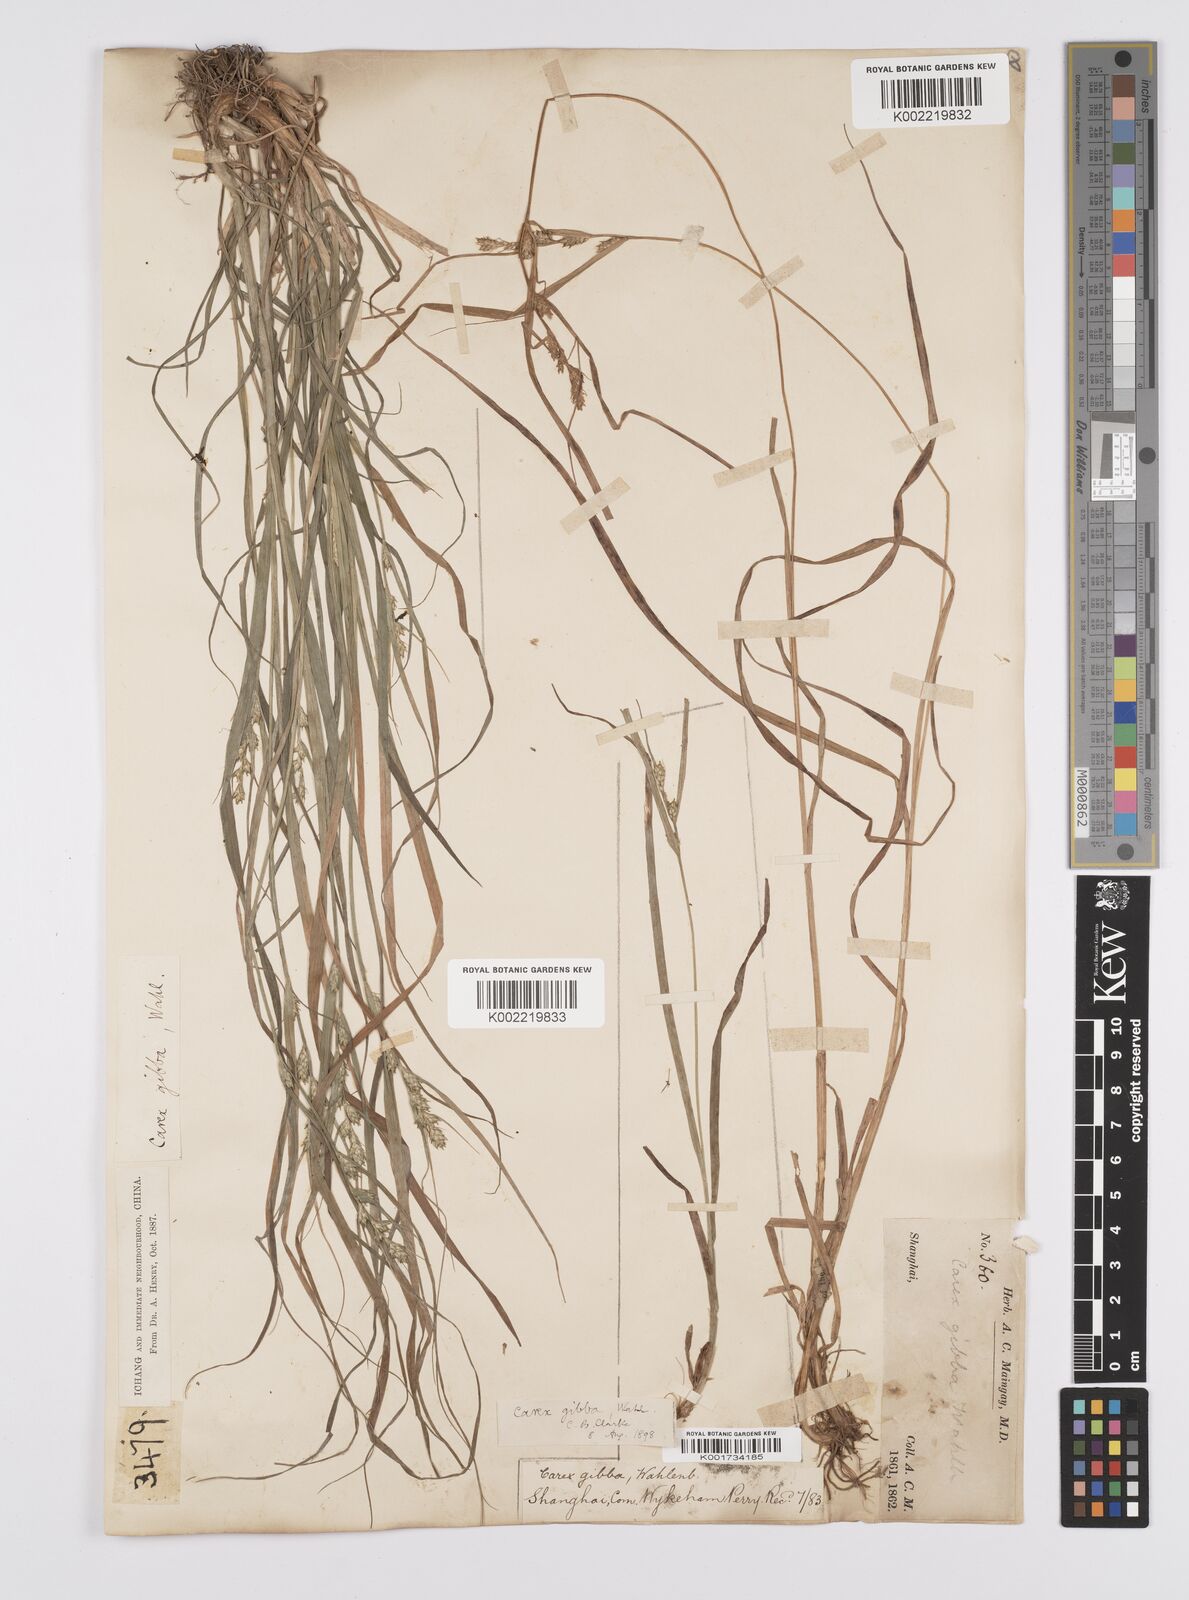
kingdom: Plantae
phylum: Tracheophyta
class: Liliopsida
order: Poales
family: Cyperaceae
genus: Carex
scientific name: Carex gibba
